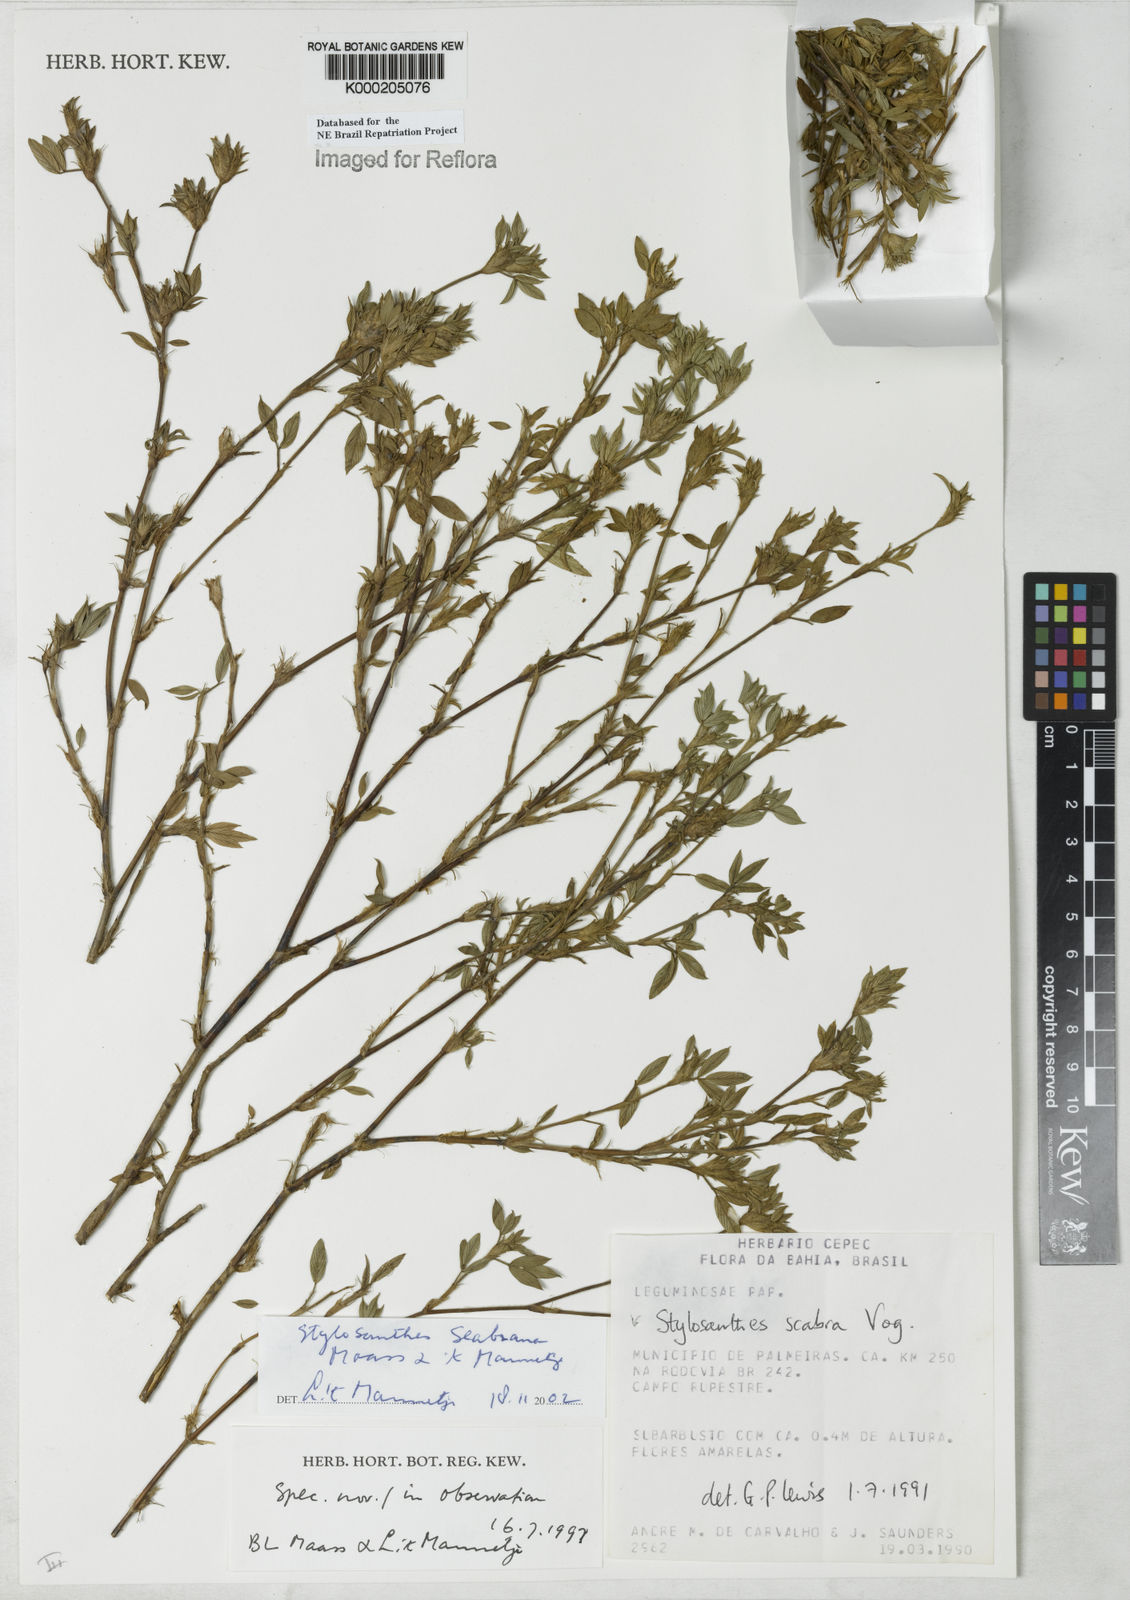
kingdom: Plantae
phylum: Tracheophyta
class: Magnoliopsida
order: Fabales
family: Fabaceae
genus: Stylosanthes
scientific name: Stylosanthes scabra
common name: Pencilflower
